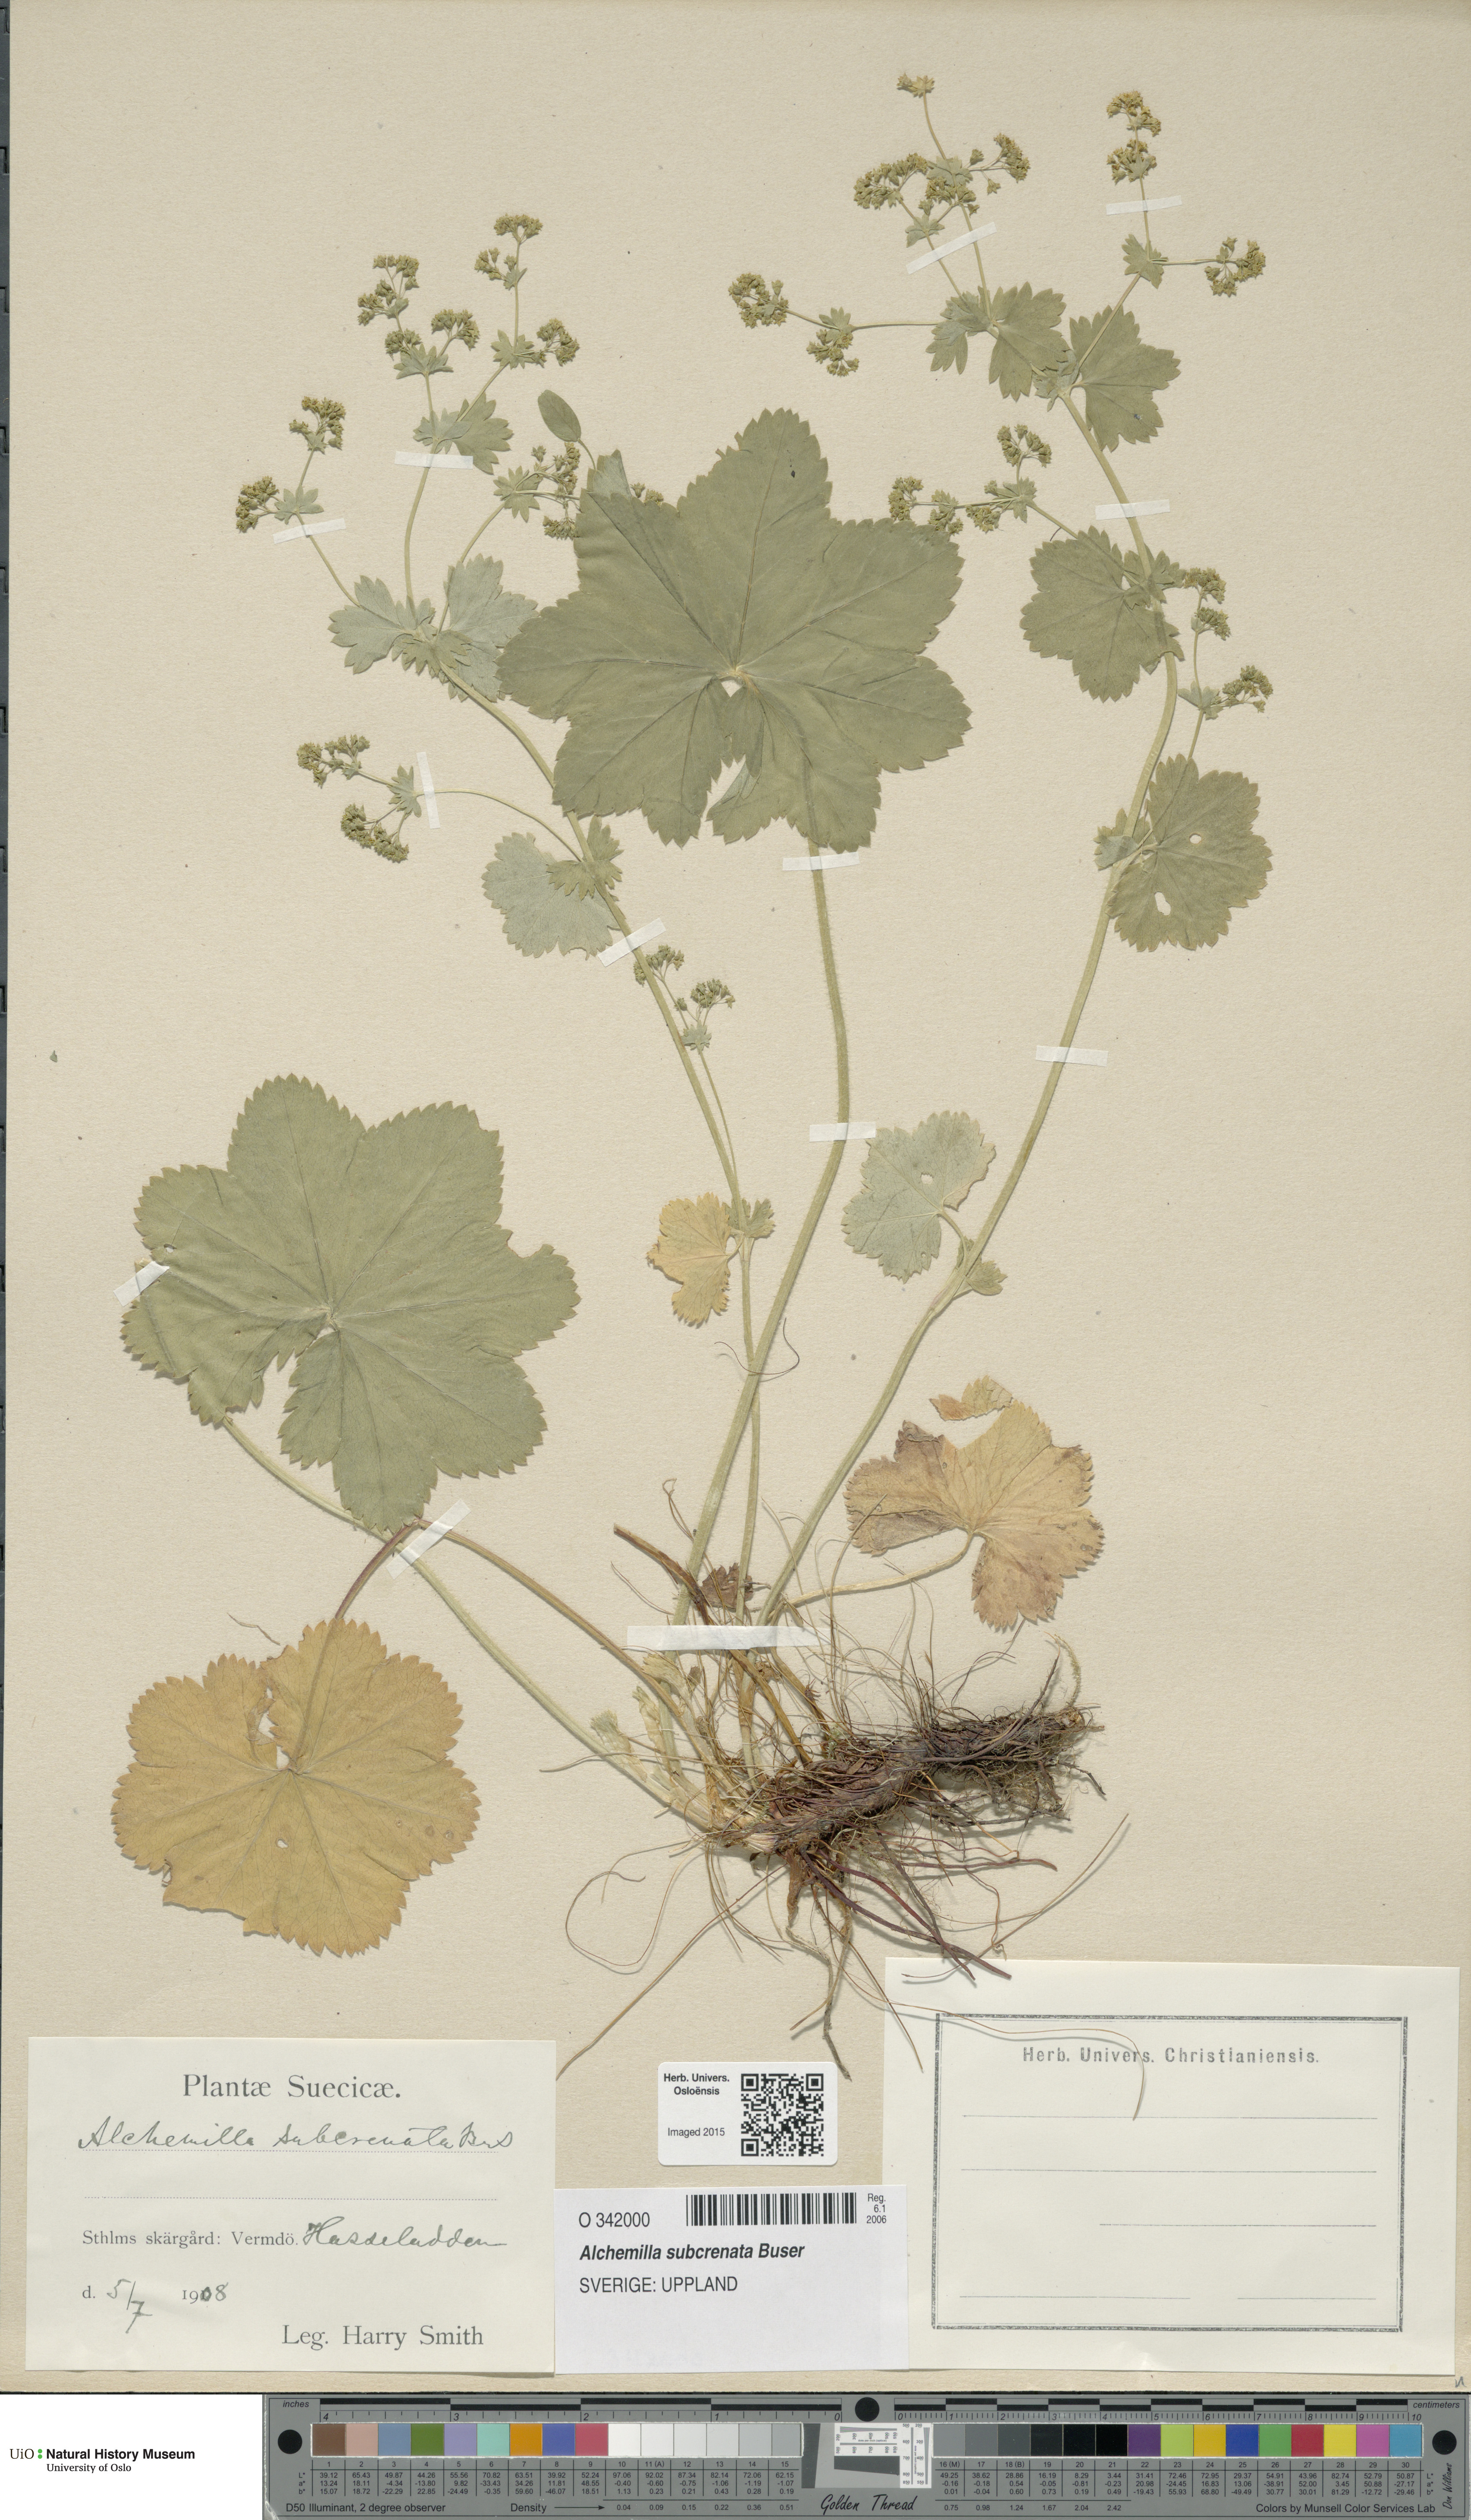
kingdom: Plantae
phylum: Tracheophyta
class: Magnoliopsida
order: Rosales
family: Rosaceae
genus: Alchemilla
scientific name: Alchemilla subcrenata
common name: Broadtooth lady's mantle
